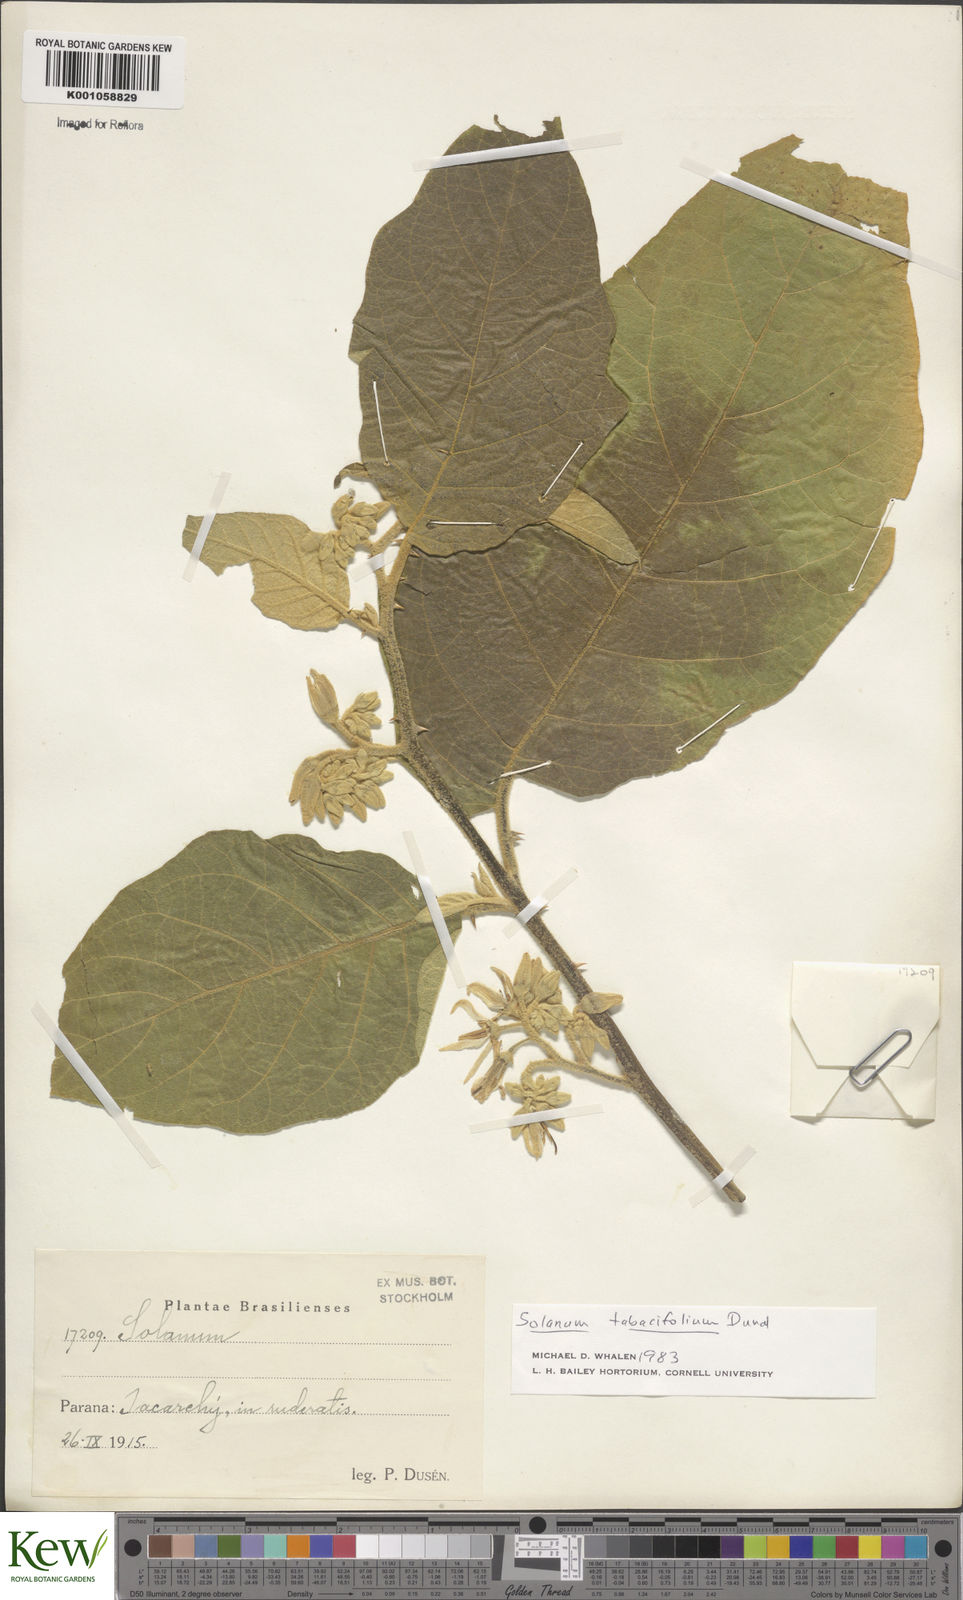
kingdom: Plantae
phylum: Tracheophyta
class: Magnoliopsida
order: Solanales
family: Solanaceae
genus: Solanum
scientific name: Solanum scuticum
